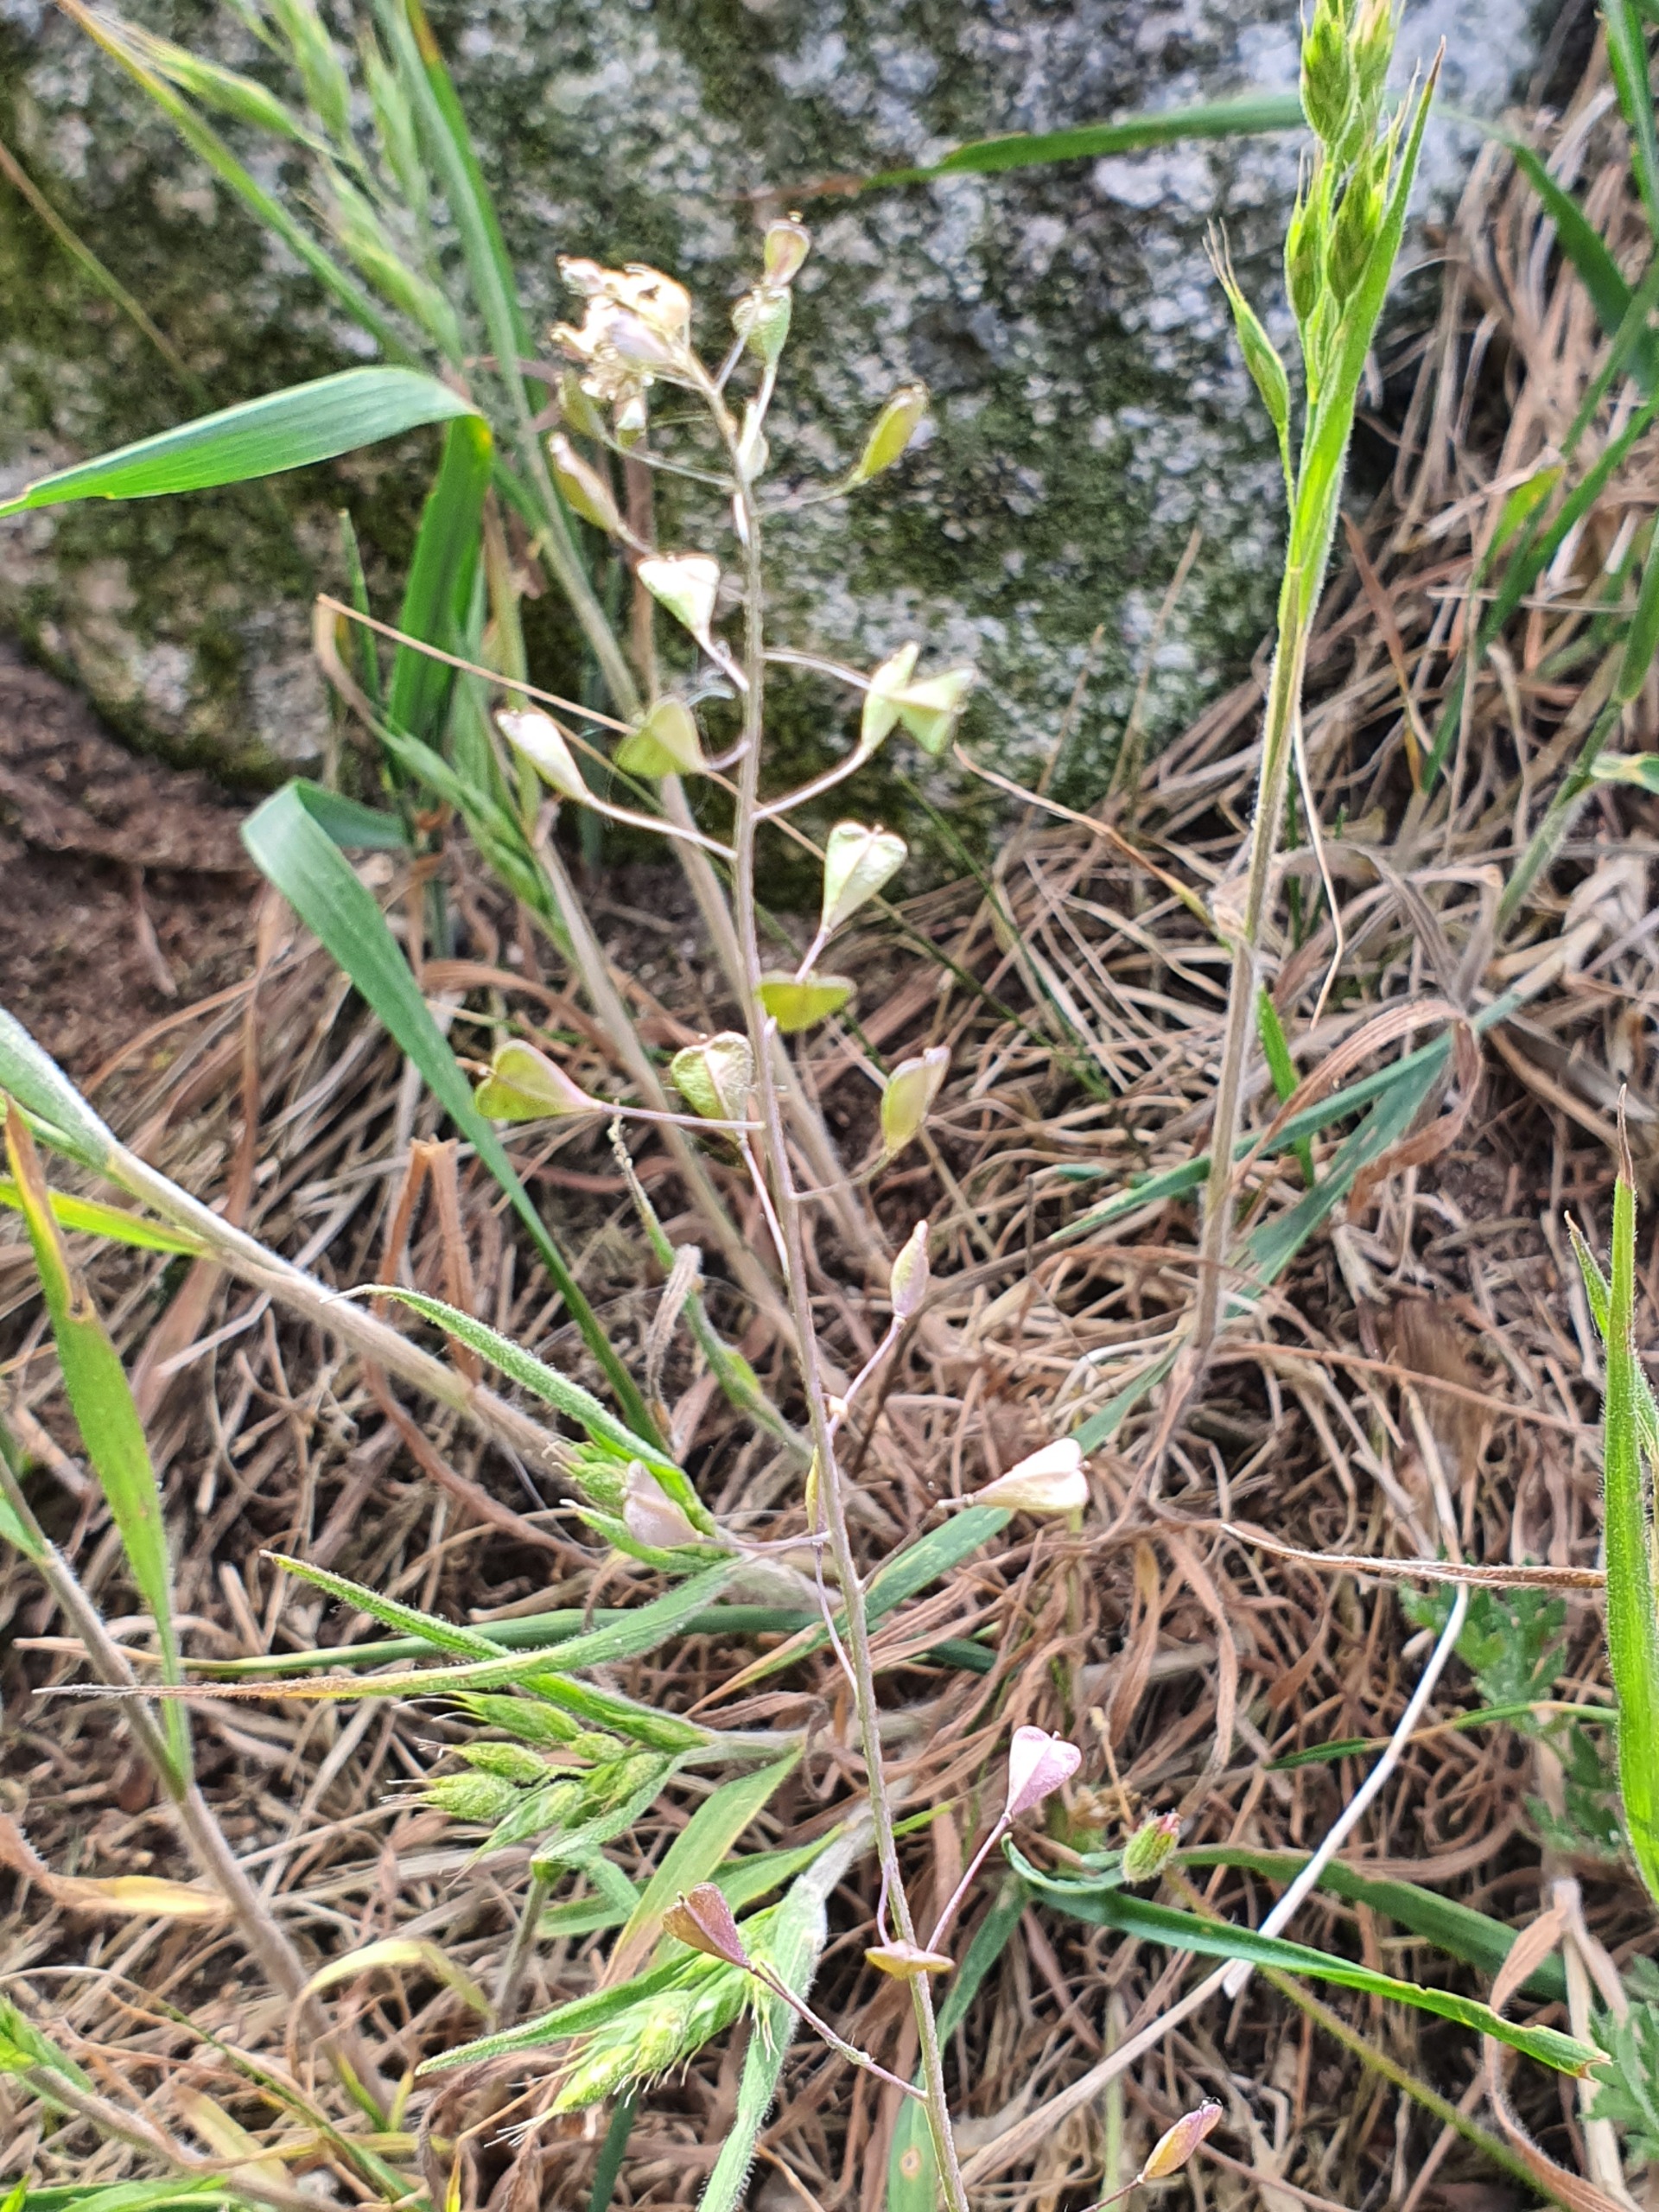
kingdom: Plantae
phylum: Tracheophyta
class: Magnoliopsida
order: Brassicales
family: Brassicaceae
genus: Capsella
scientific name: Capsella bursa-pastoris
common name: Hyrdetaske
